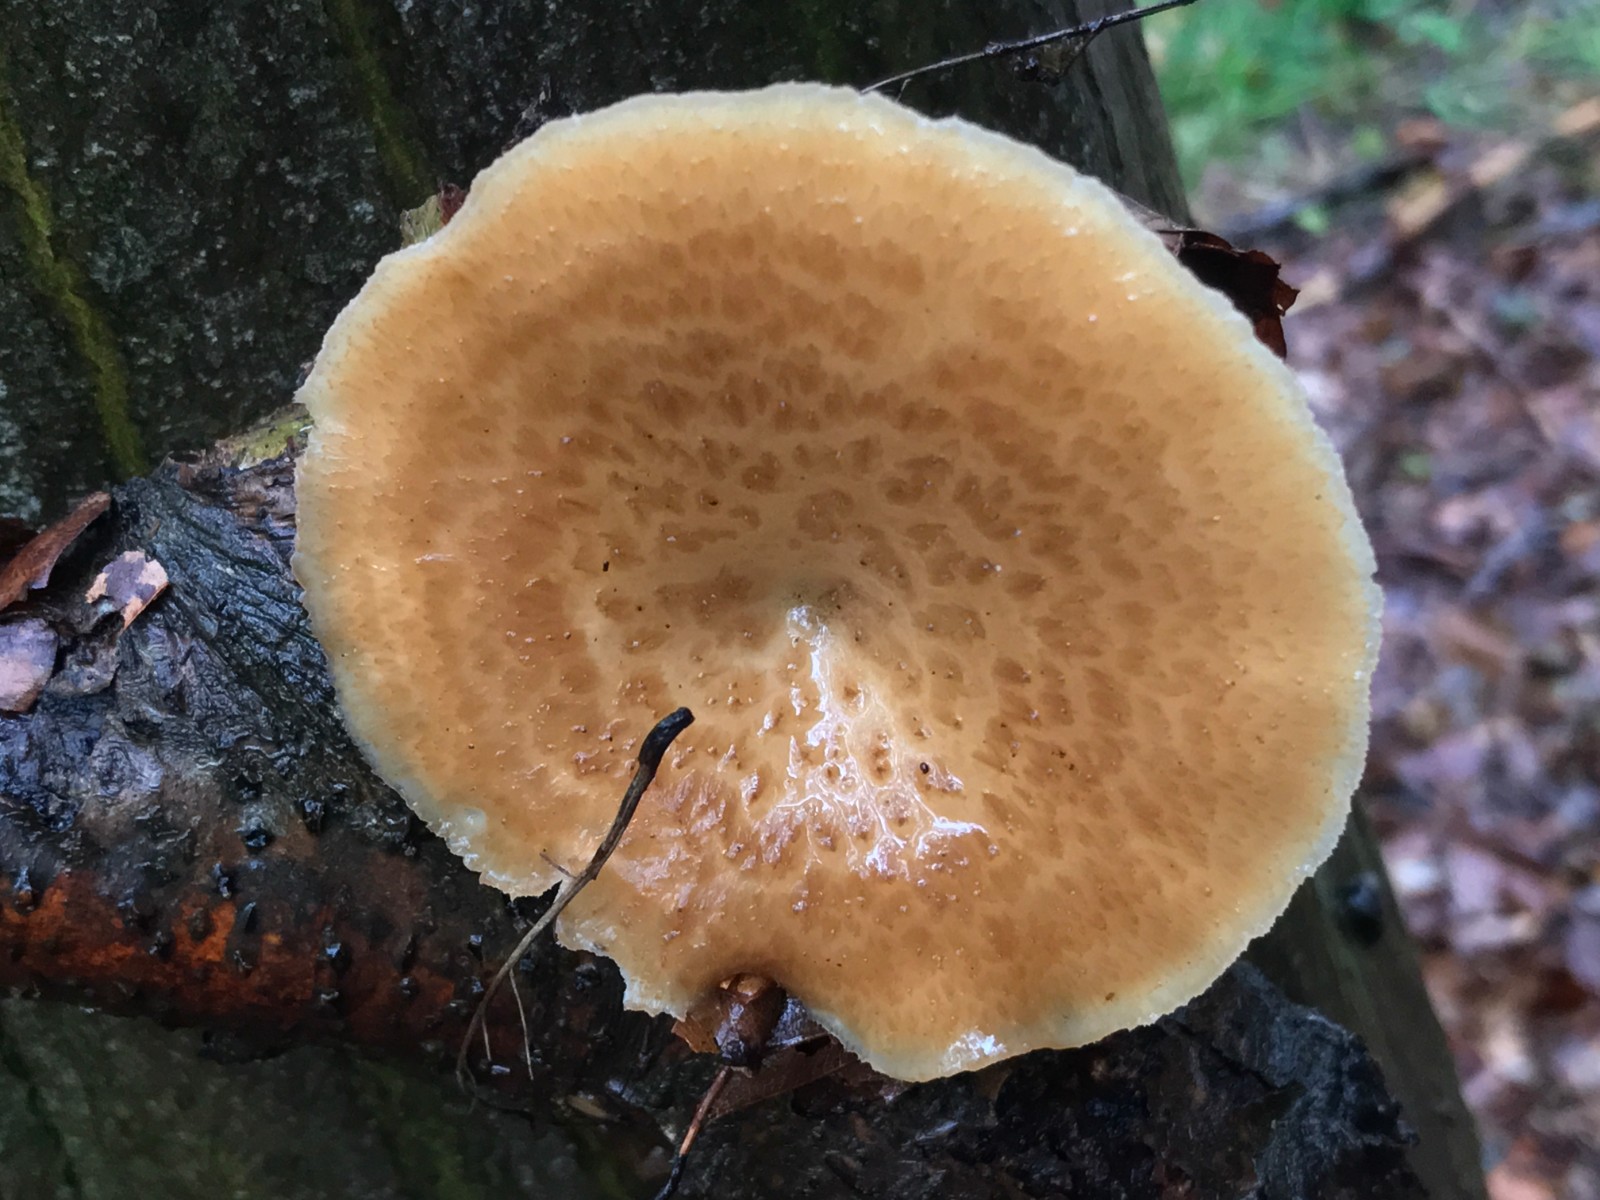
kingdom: Fungi
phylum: Basidiomycota
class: Agaricomycetes
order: Polyporales
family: Polyporaceae
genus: Polyporus
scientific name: Polyporus tuberaster
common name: knoldet stilkporesvamp
